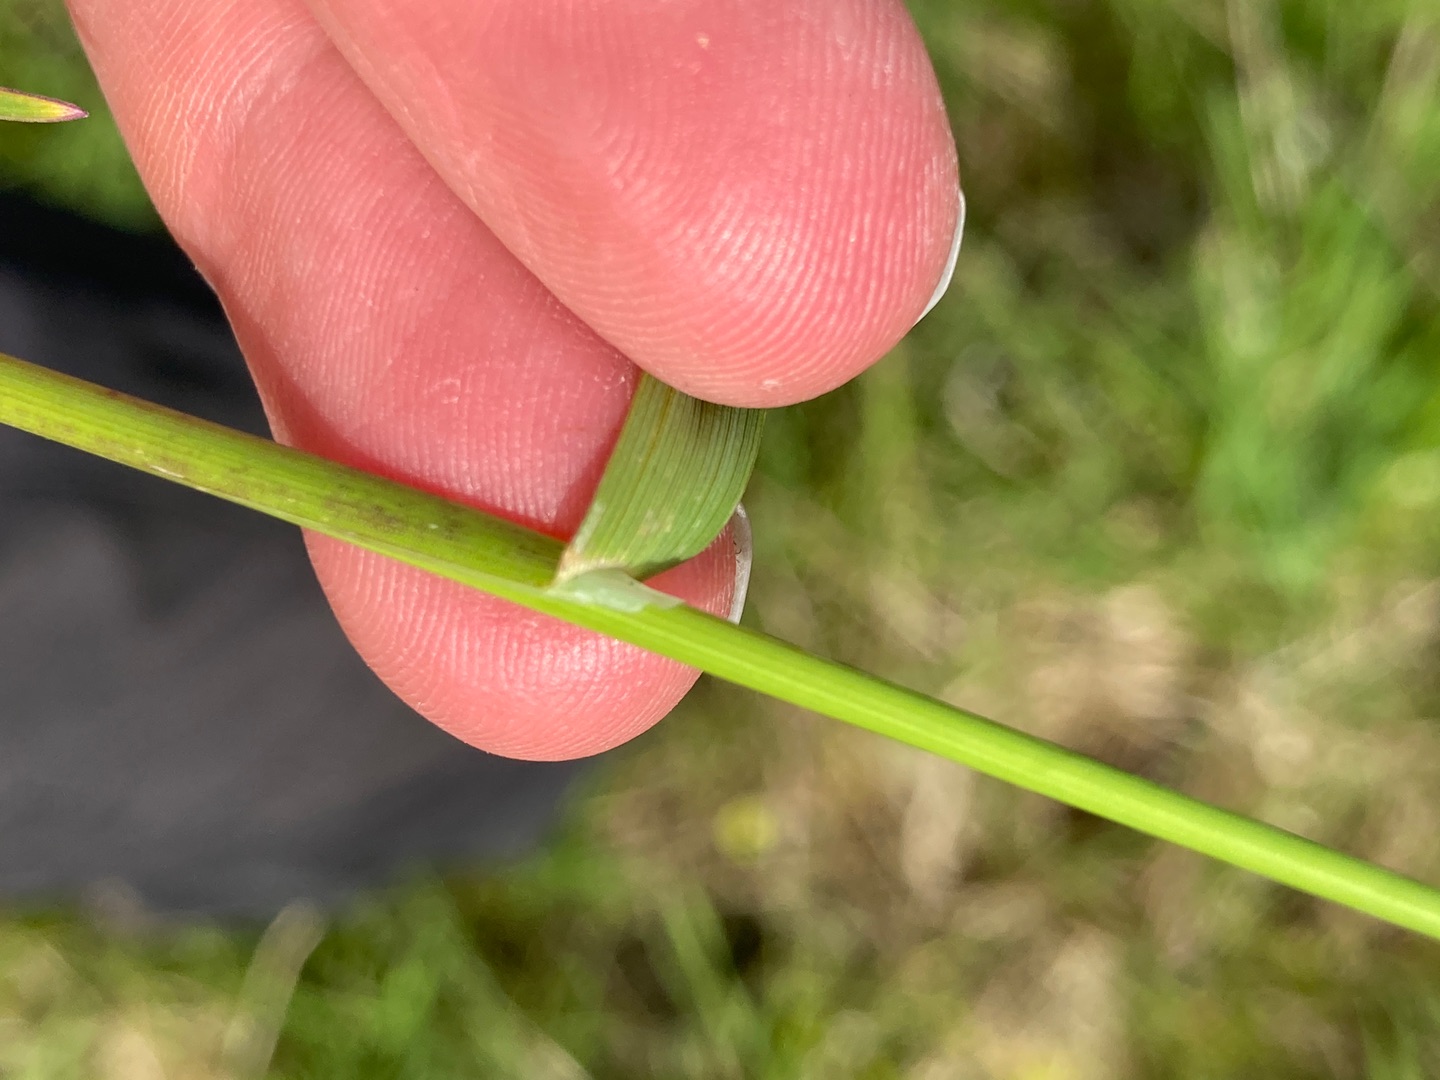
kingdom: Plantae
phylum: Tracheophyta
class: Liliopsida
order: Poales
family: Poaceae
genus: Poa
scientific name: Poa trivialis
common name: Almindelig rapgræs
